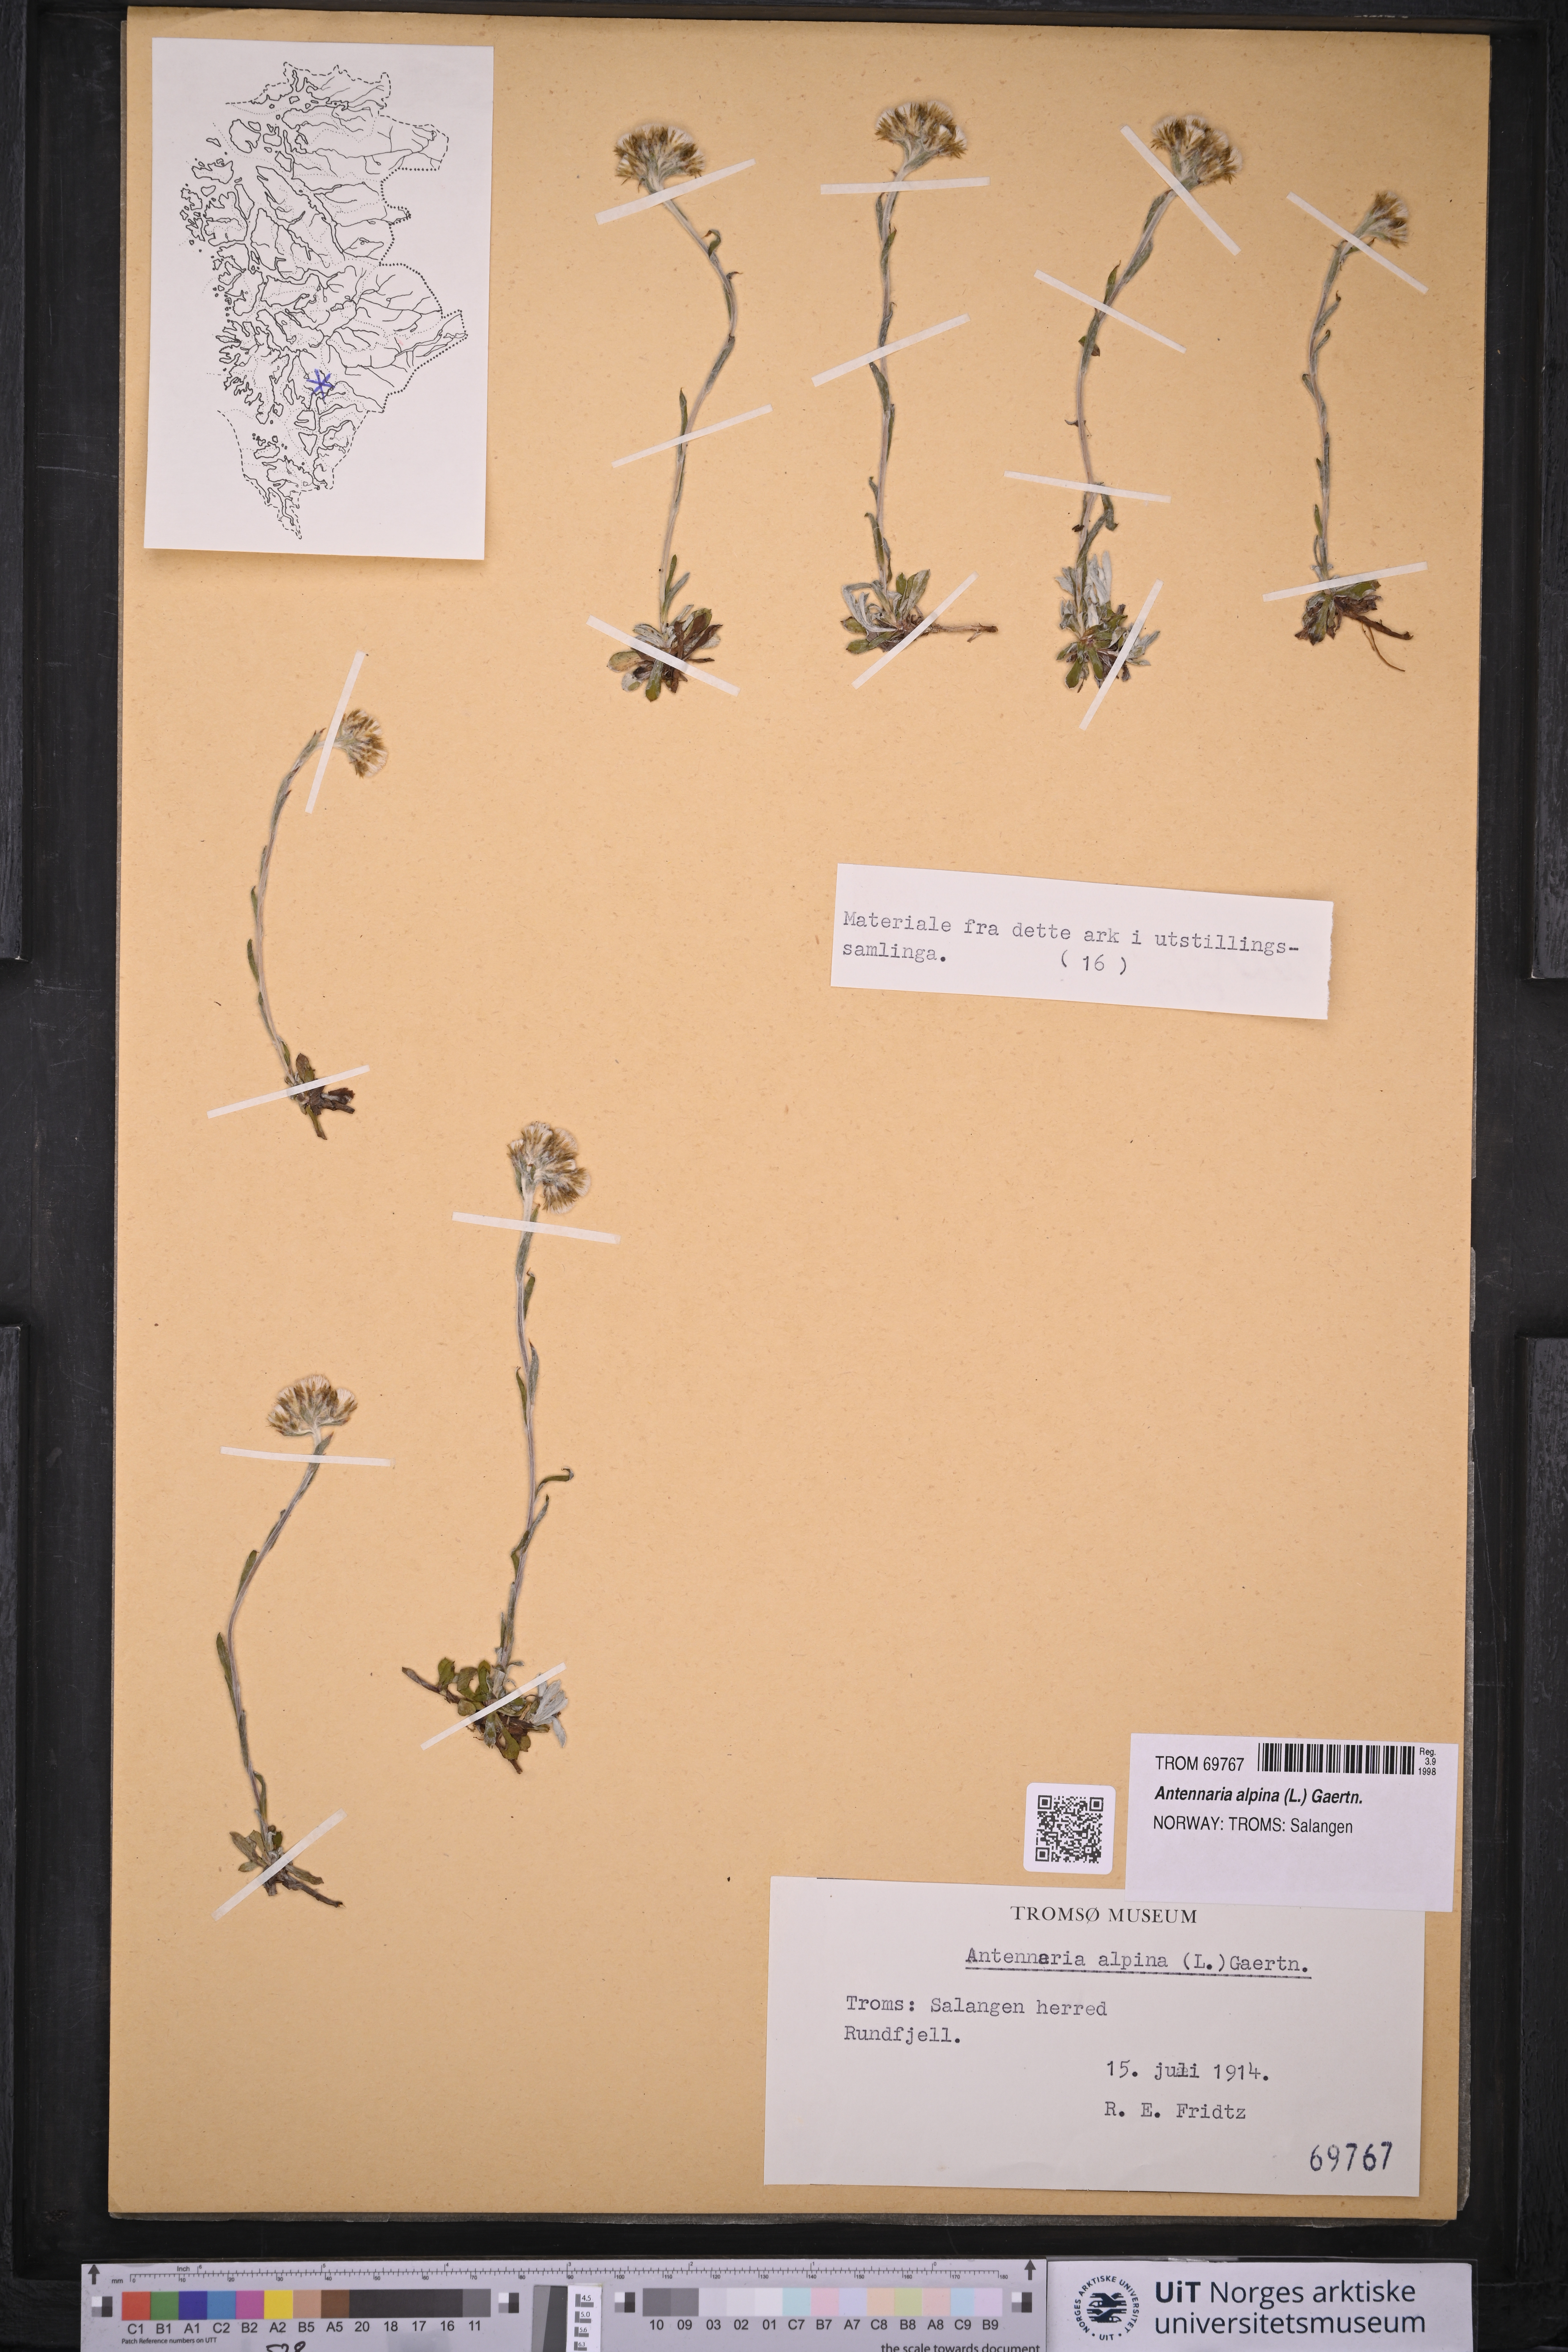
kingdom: Plantae
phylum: Tracheophyta
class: Magnoliopsida
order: Asterales
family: Asteraceae
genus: Antennaria
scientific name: Antennaria alpina
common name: Alpine pussytoes
